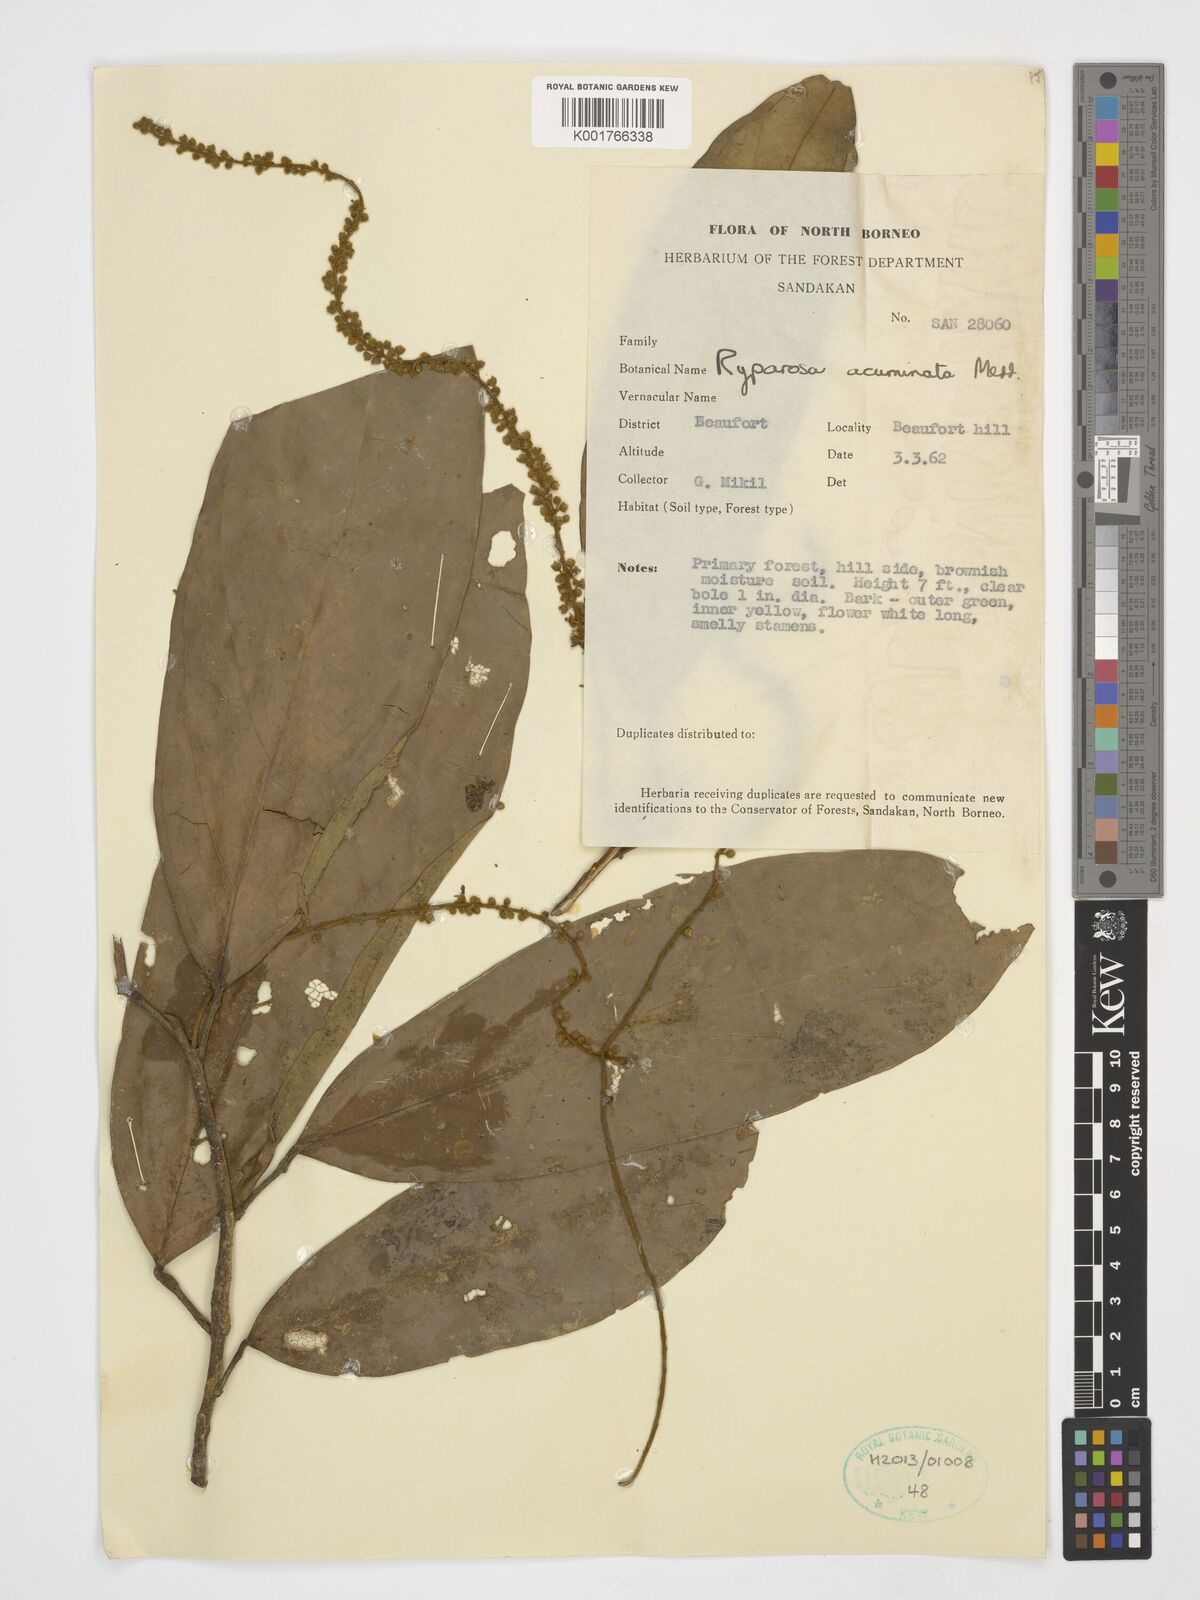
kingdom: Plantae
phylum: Tracheophyta
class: Magnoliopsida
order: Malpighiales
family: Achariaceae
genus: Ryparosa
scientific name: Ryparosa acuminata
